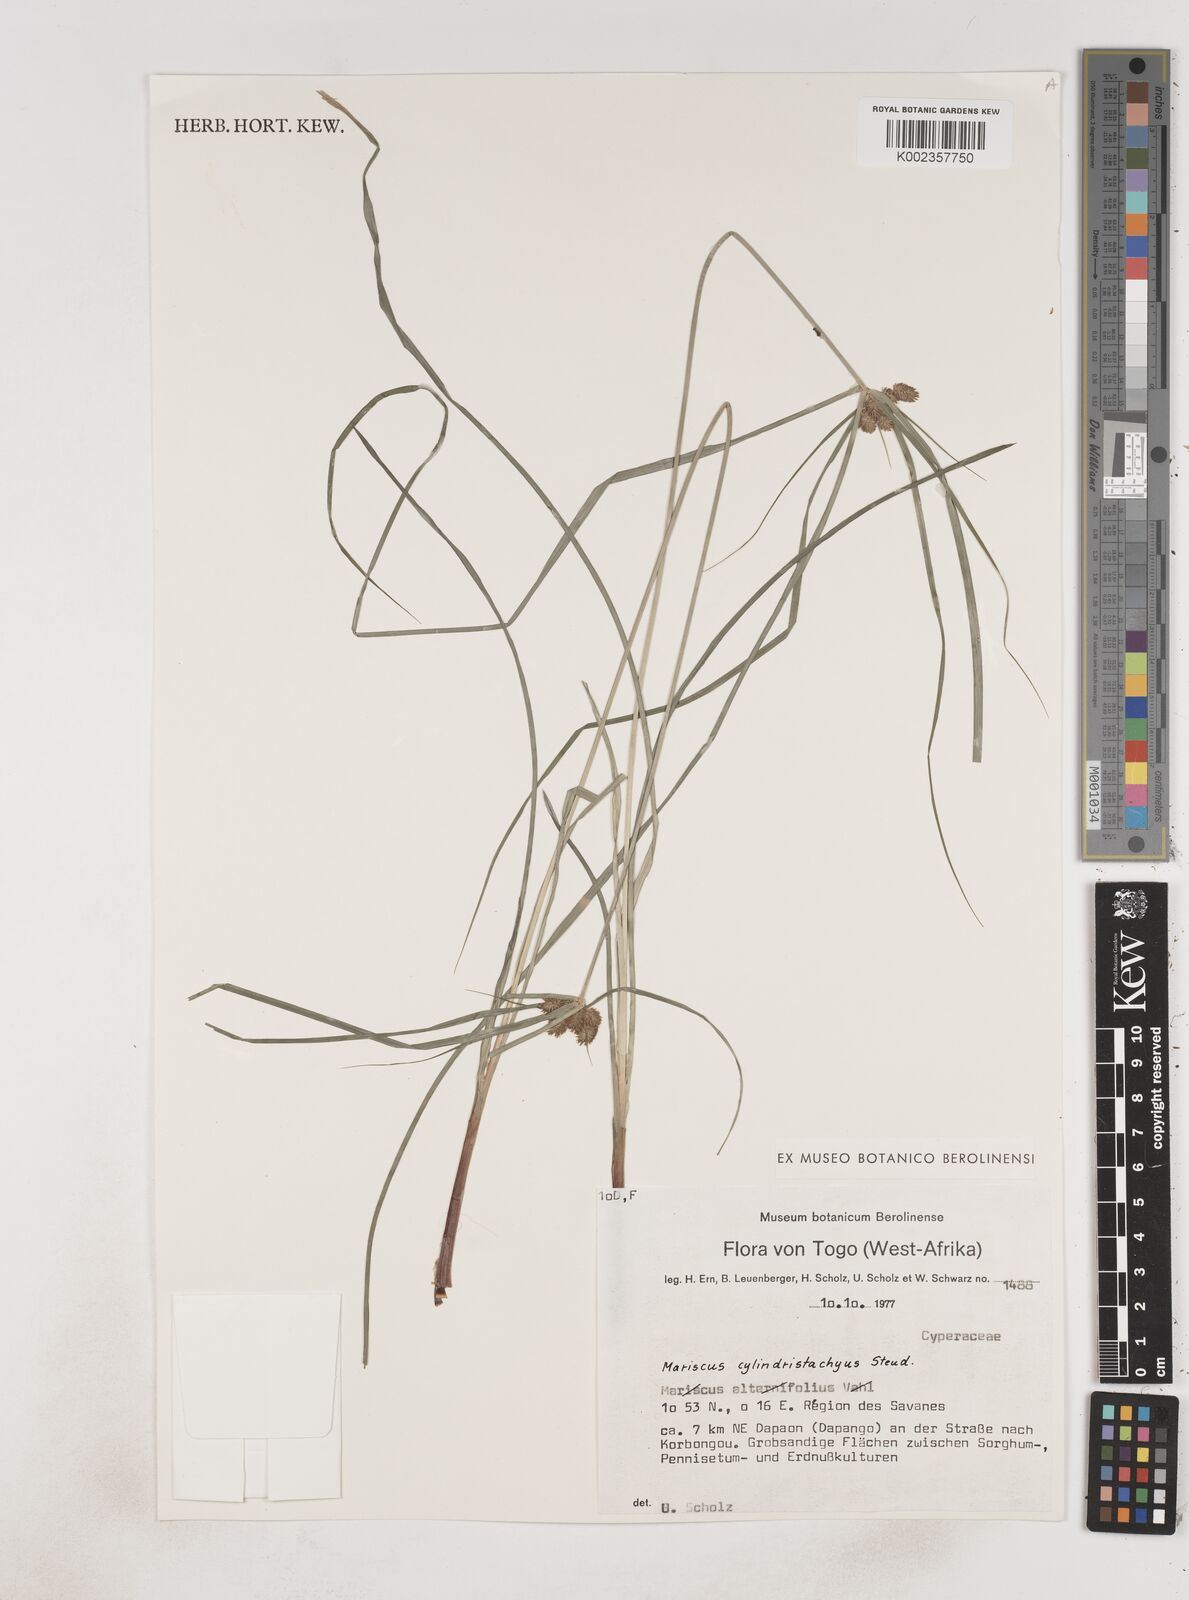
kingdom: Plantae
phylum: Tracheophyta
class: Liliopsida
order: Poales
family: Cyperaceae
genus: Cyperus
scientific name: Cyperus alternifolius
